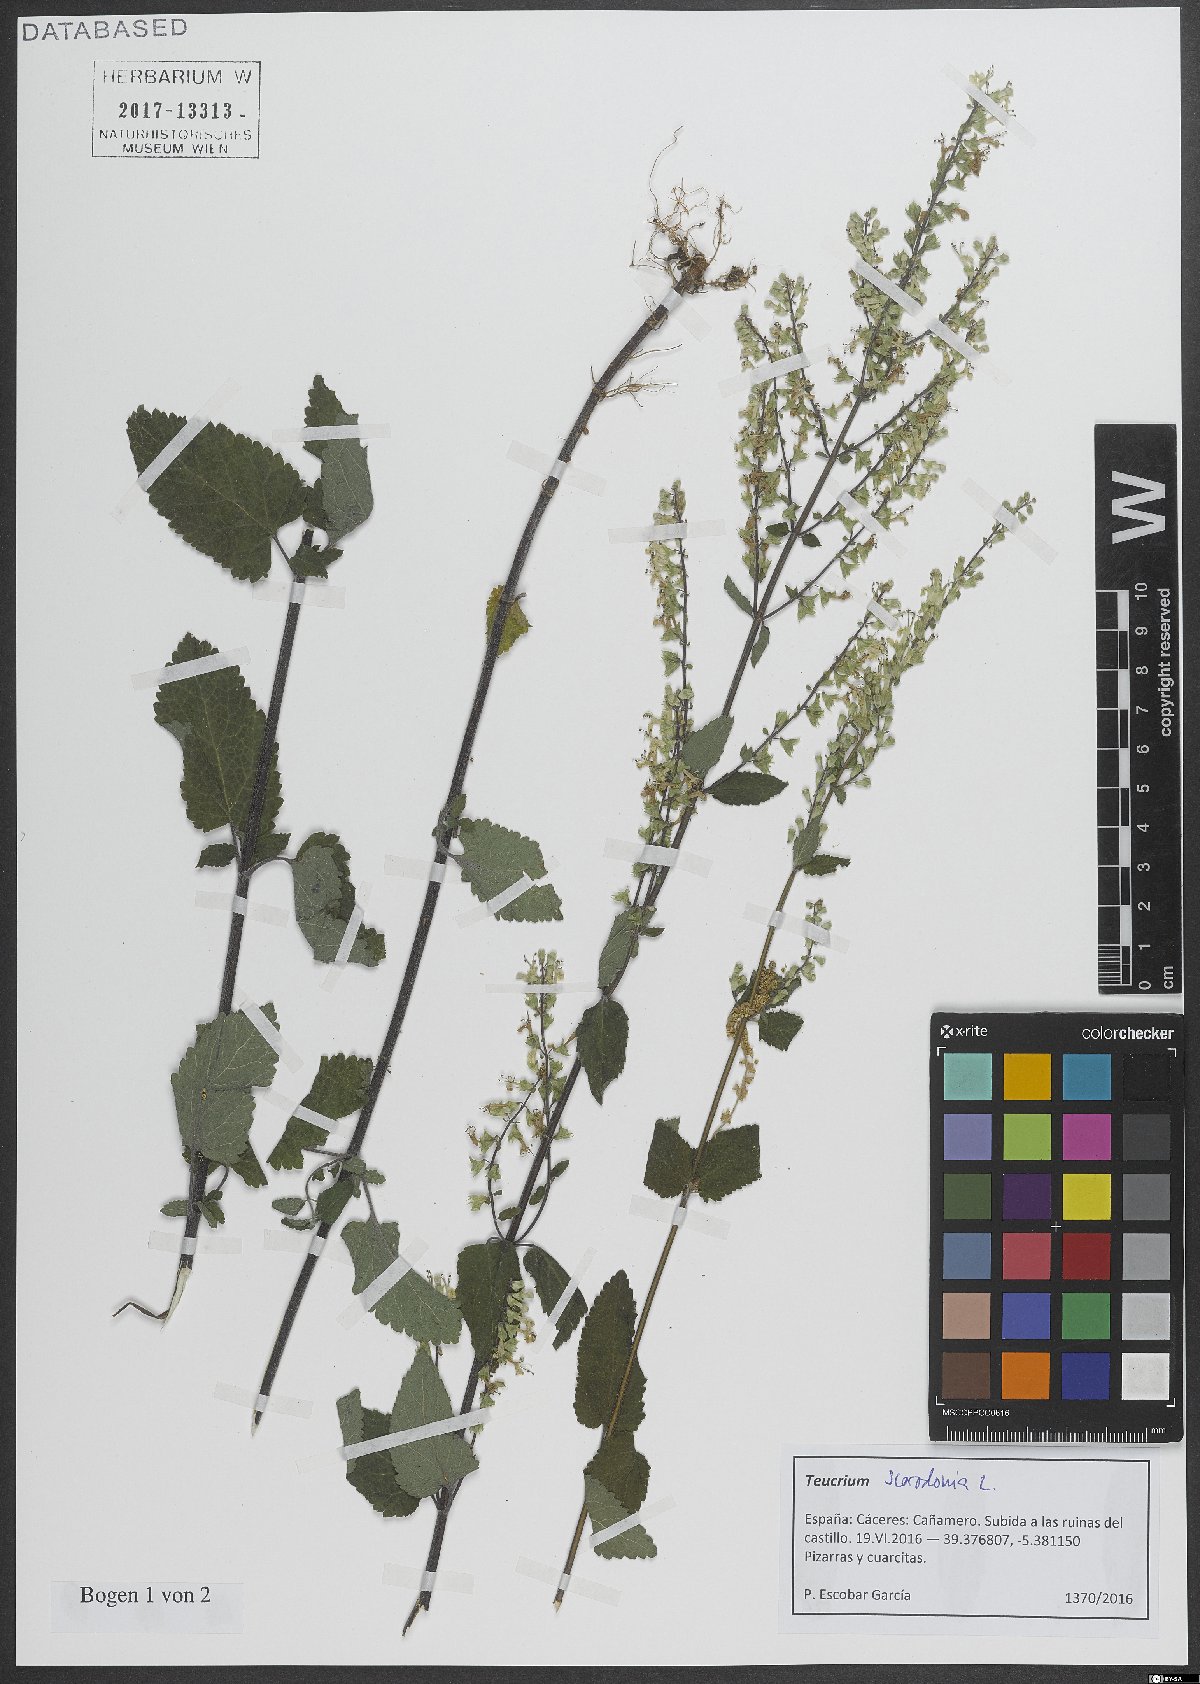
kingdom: Plantae
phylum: Tracheophyta
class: Magnoliopsida
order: Lamiales
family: Lamiaceae
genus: Teucrium
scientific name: Teucrium scorodonia
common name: Woodland germander
